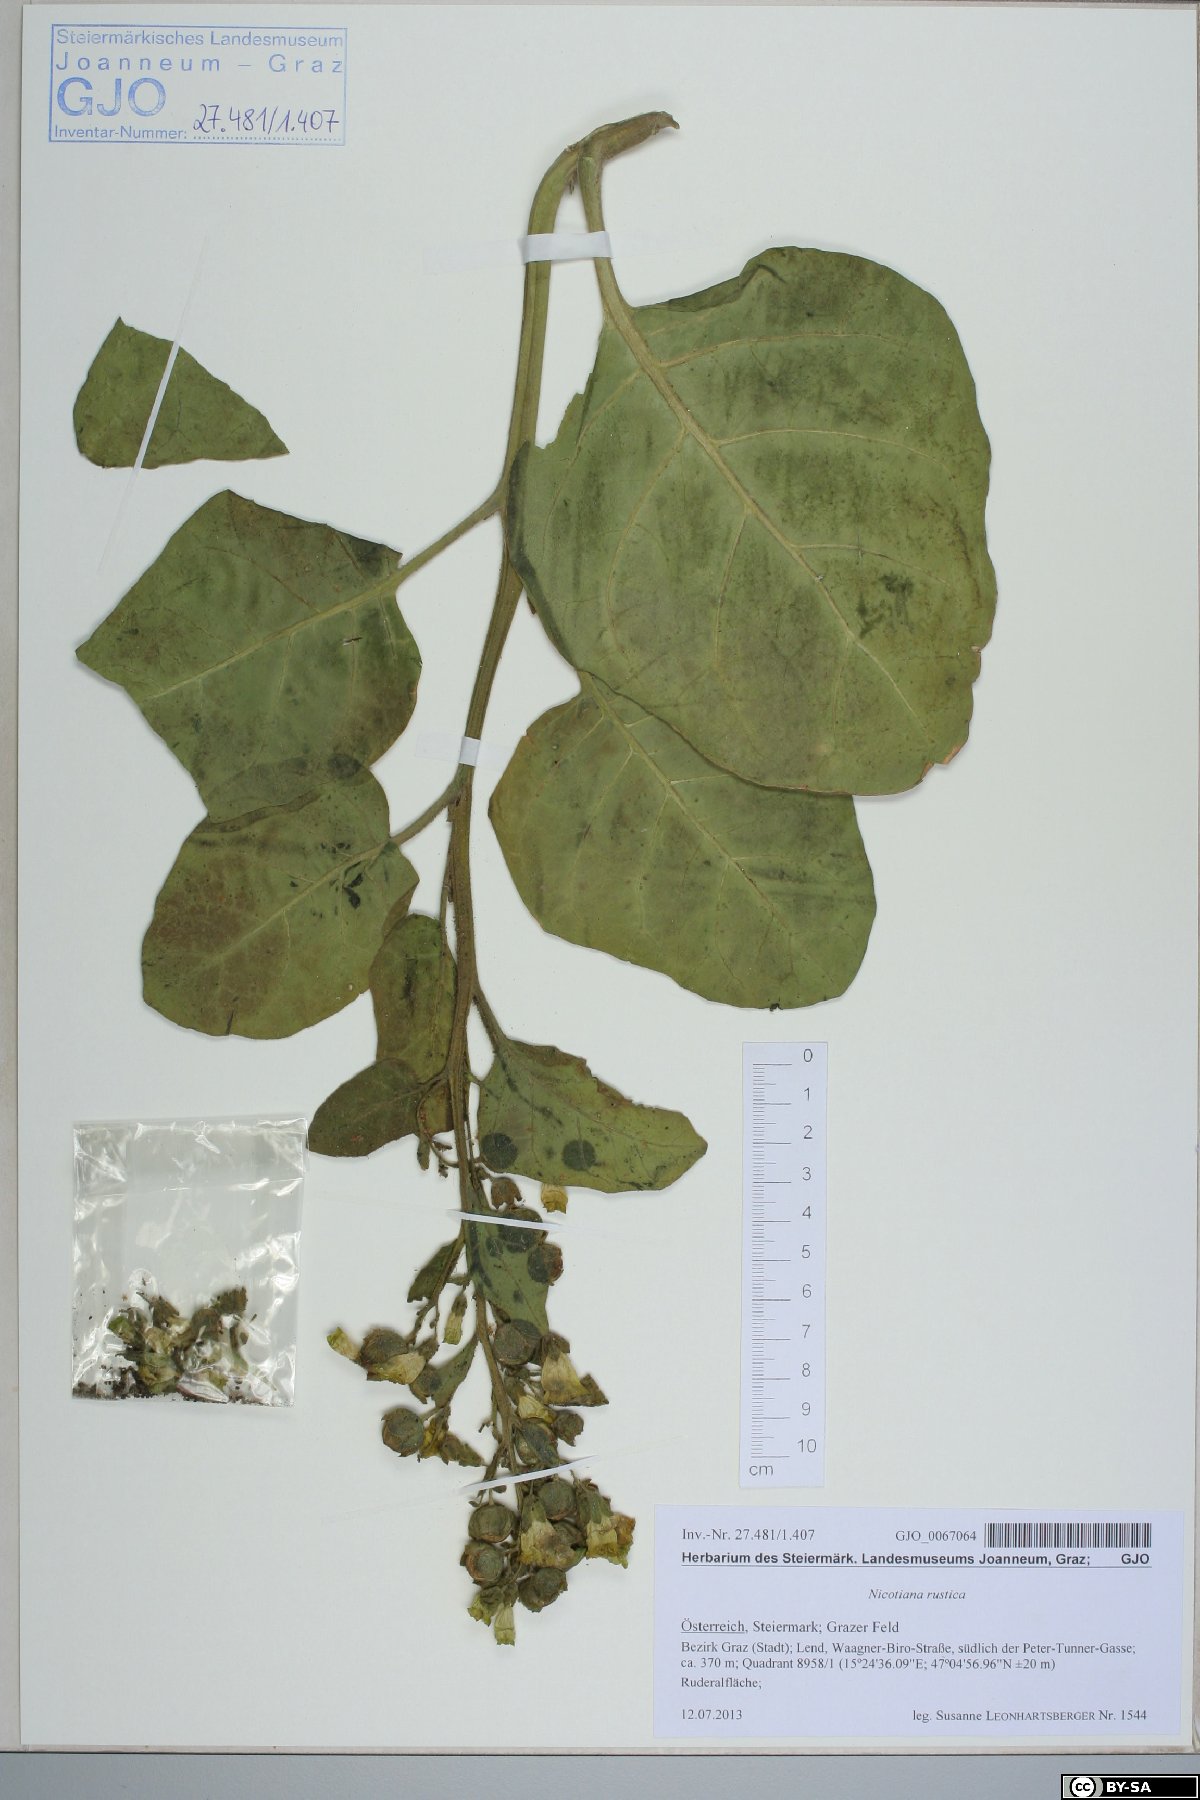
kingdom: Plantae
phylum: Tracheophyta
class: Magnoliopsida
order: Solanales
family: Solanaceae
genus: Nicotiana
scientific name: Nicotiana rustica
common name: Wild tobacco
